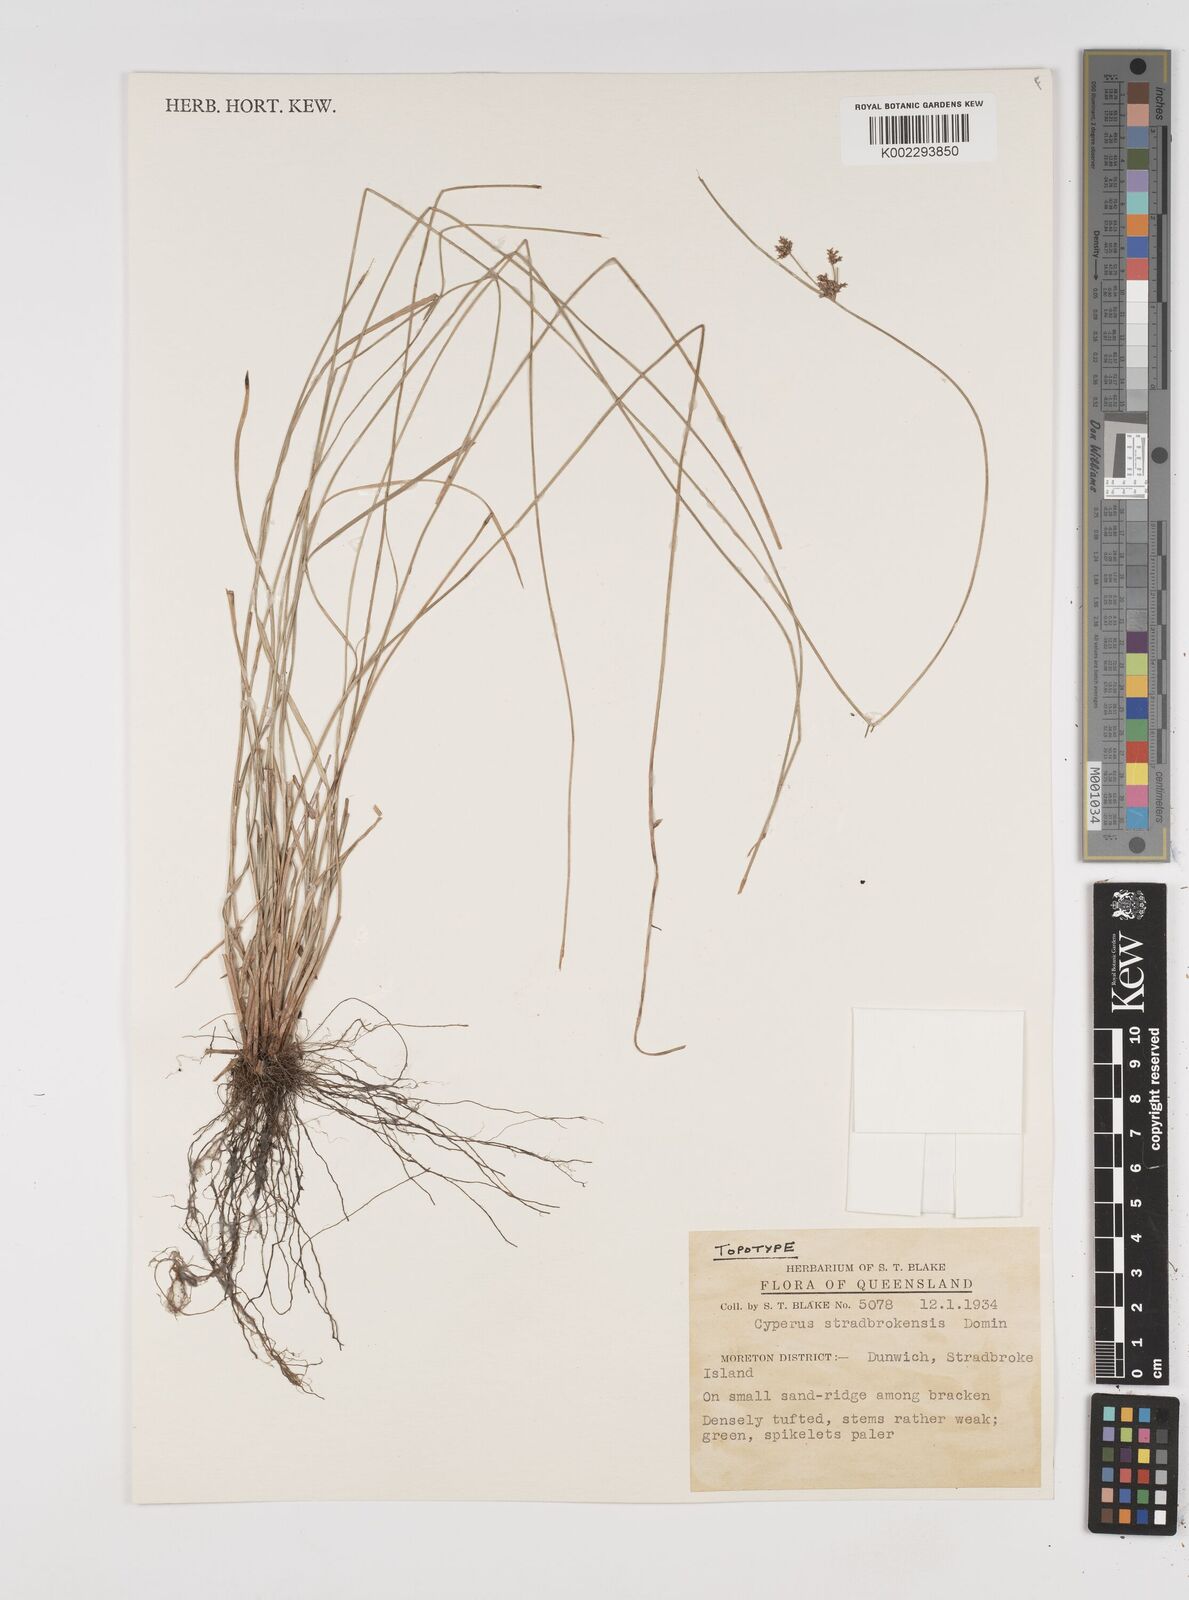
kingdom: Plantae
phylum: Tracheophyta
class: Liliopsida
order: Poales
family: Cyperaceae
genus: Cyperus
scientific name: Cyperus stradbrokensis
